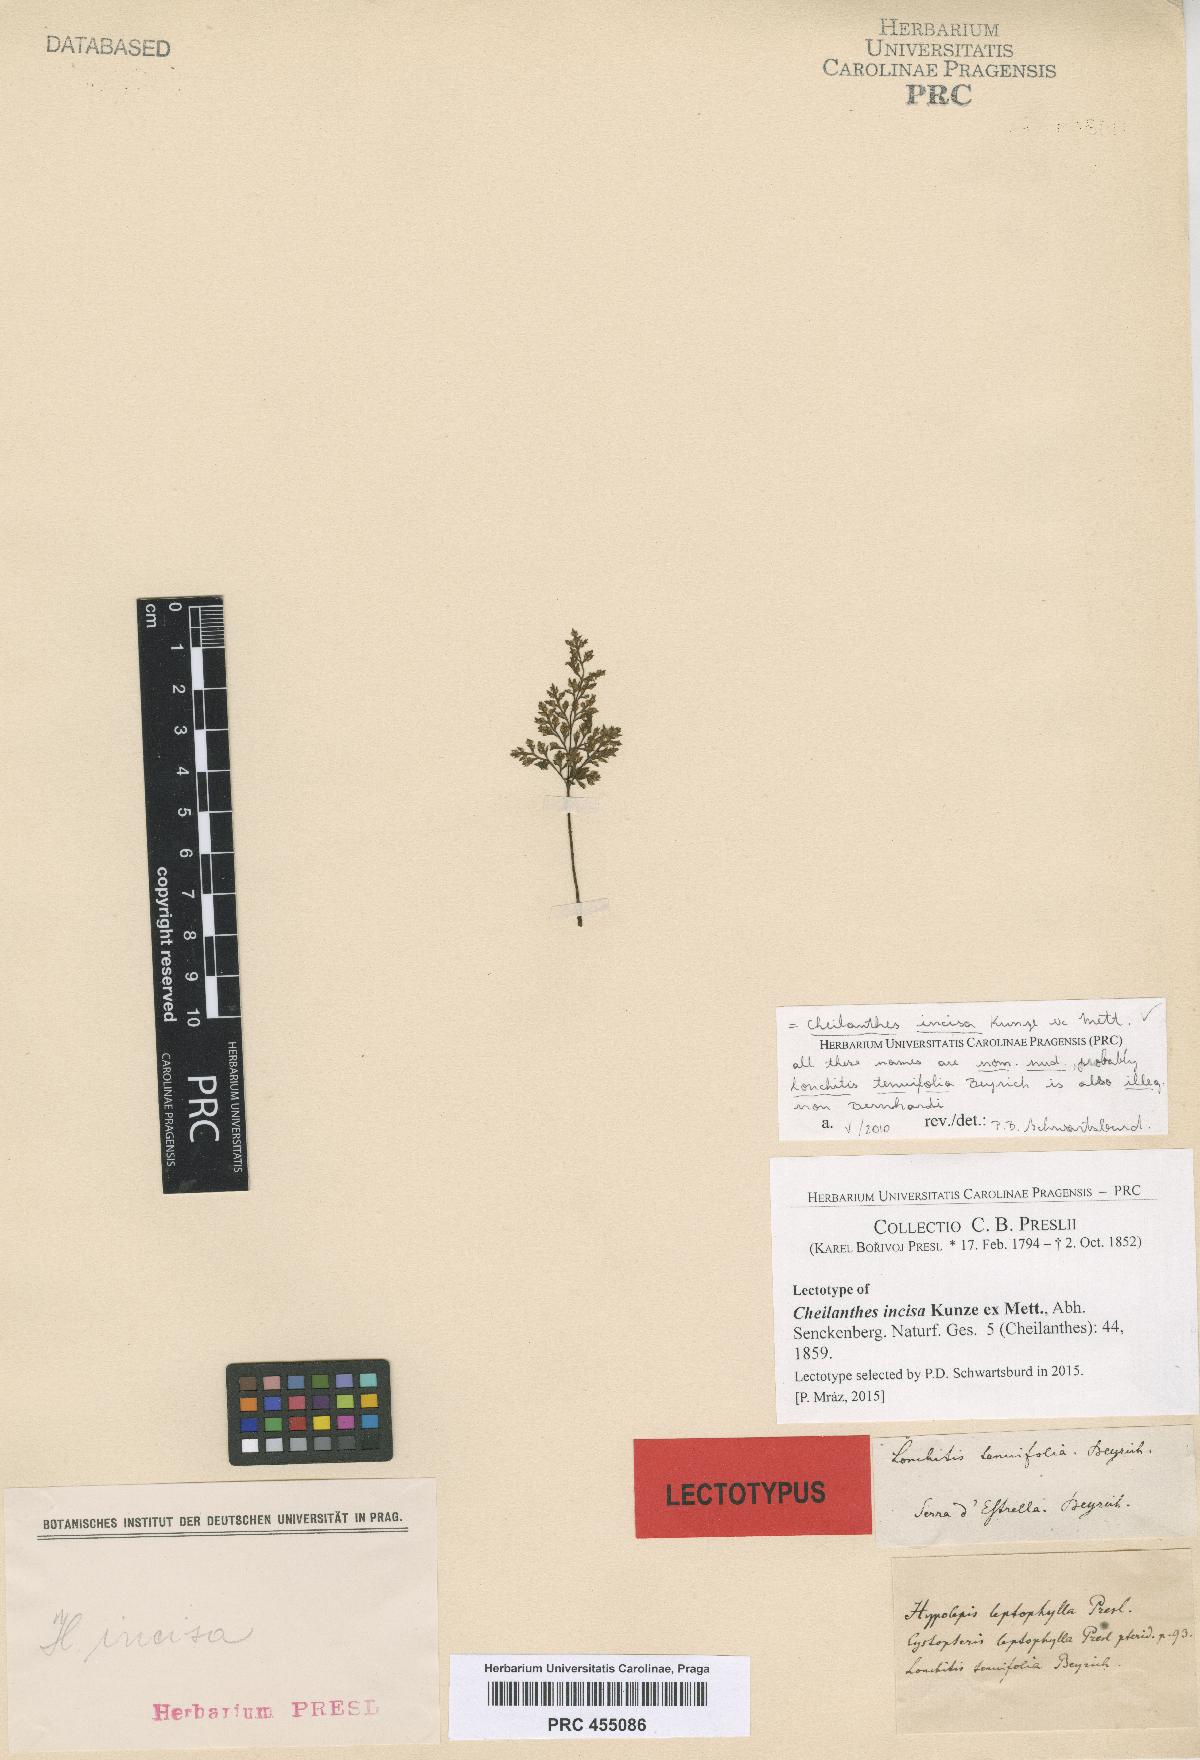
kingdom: Plantae
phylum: Tracheophyta
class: Polypodiopsida
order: Polypodiales
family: Pteridaceae
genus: Cheilanthes
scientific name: Cheilanthes incisa
